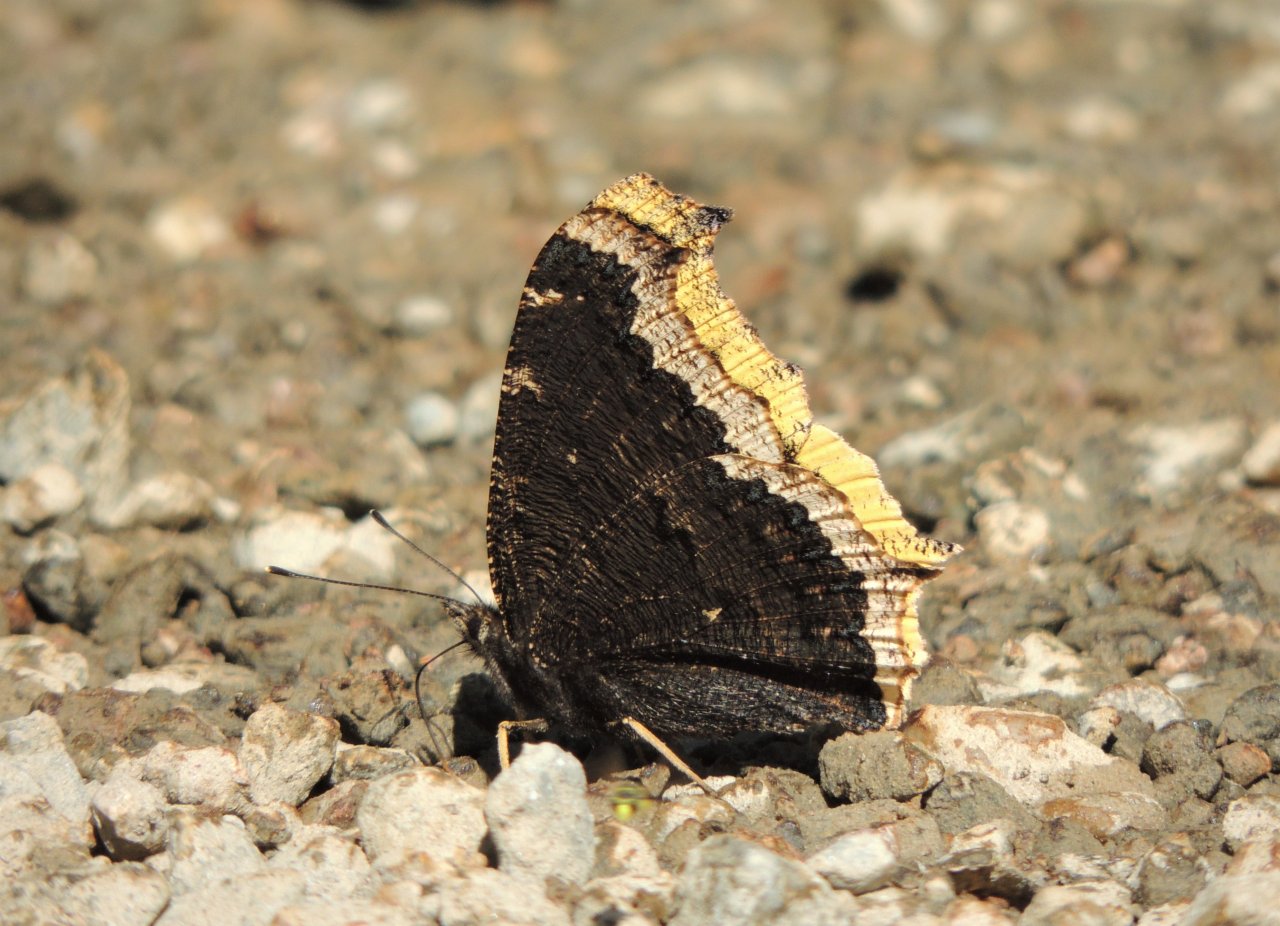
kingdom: Animalia
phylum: Arthropoda
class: Insecta
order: Lepidoptera
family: Nymphalidae
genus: Nymphalis
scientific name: Nymphalis antiopa
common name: Mourning Cloak
